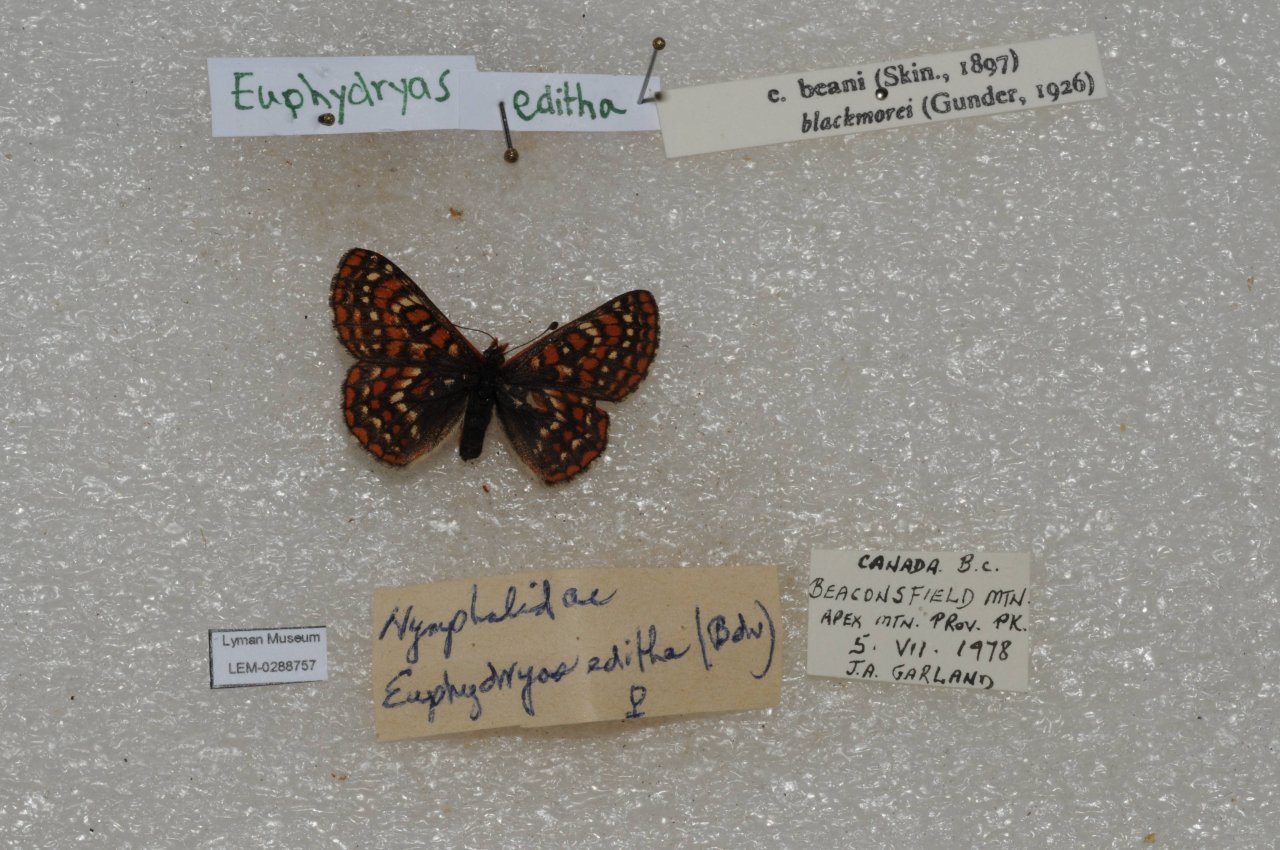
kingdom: Animalia
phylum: Arthropoda
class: Insecta
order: Lepidoptera
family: Nymphalidae
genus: Occidryas
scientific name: Occidryas editha
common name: Edith's Checkerspot
